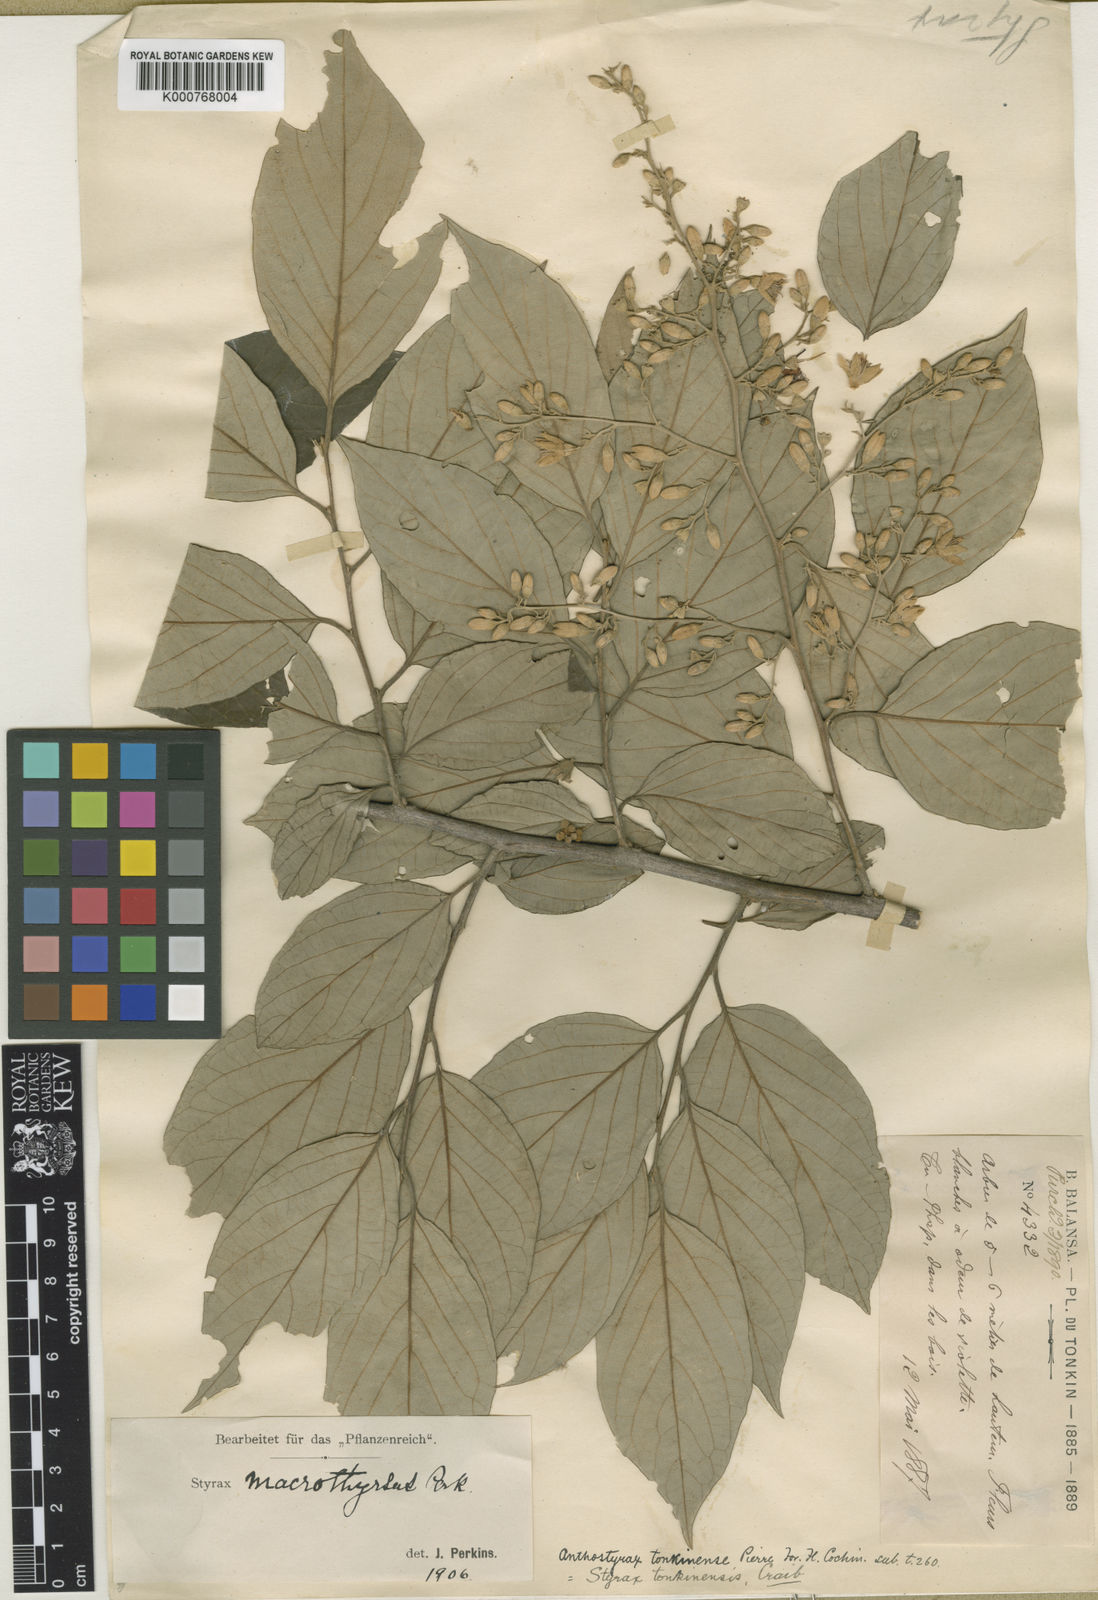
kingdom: Plantae
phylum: Tracheophyta
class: Magnoliopsida
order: Ericales
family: Styracaceae
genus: Styrax
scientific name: Styrax tonkinensis
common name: Siam benzoin
